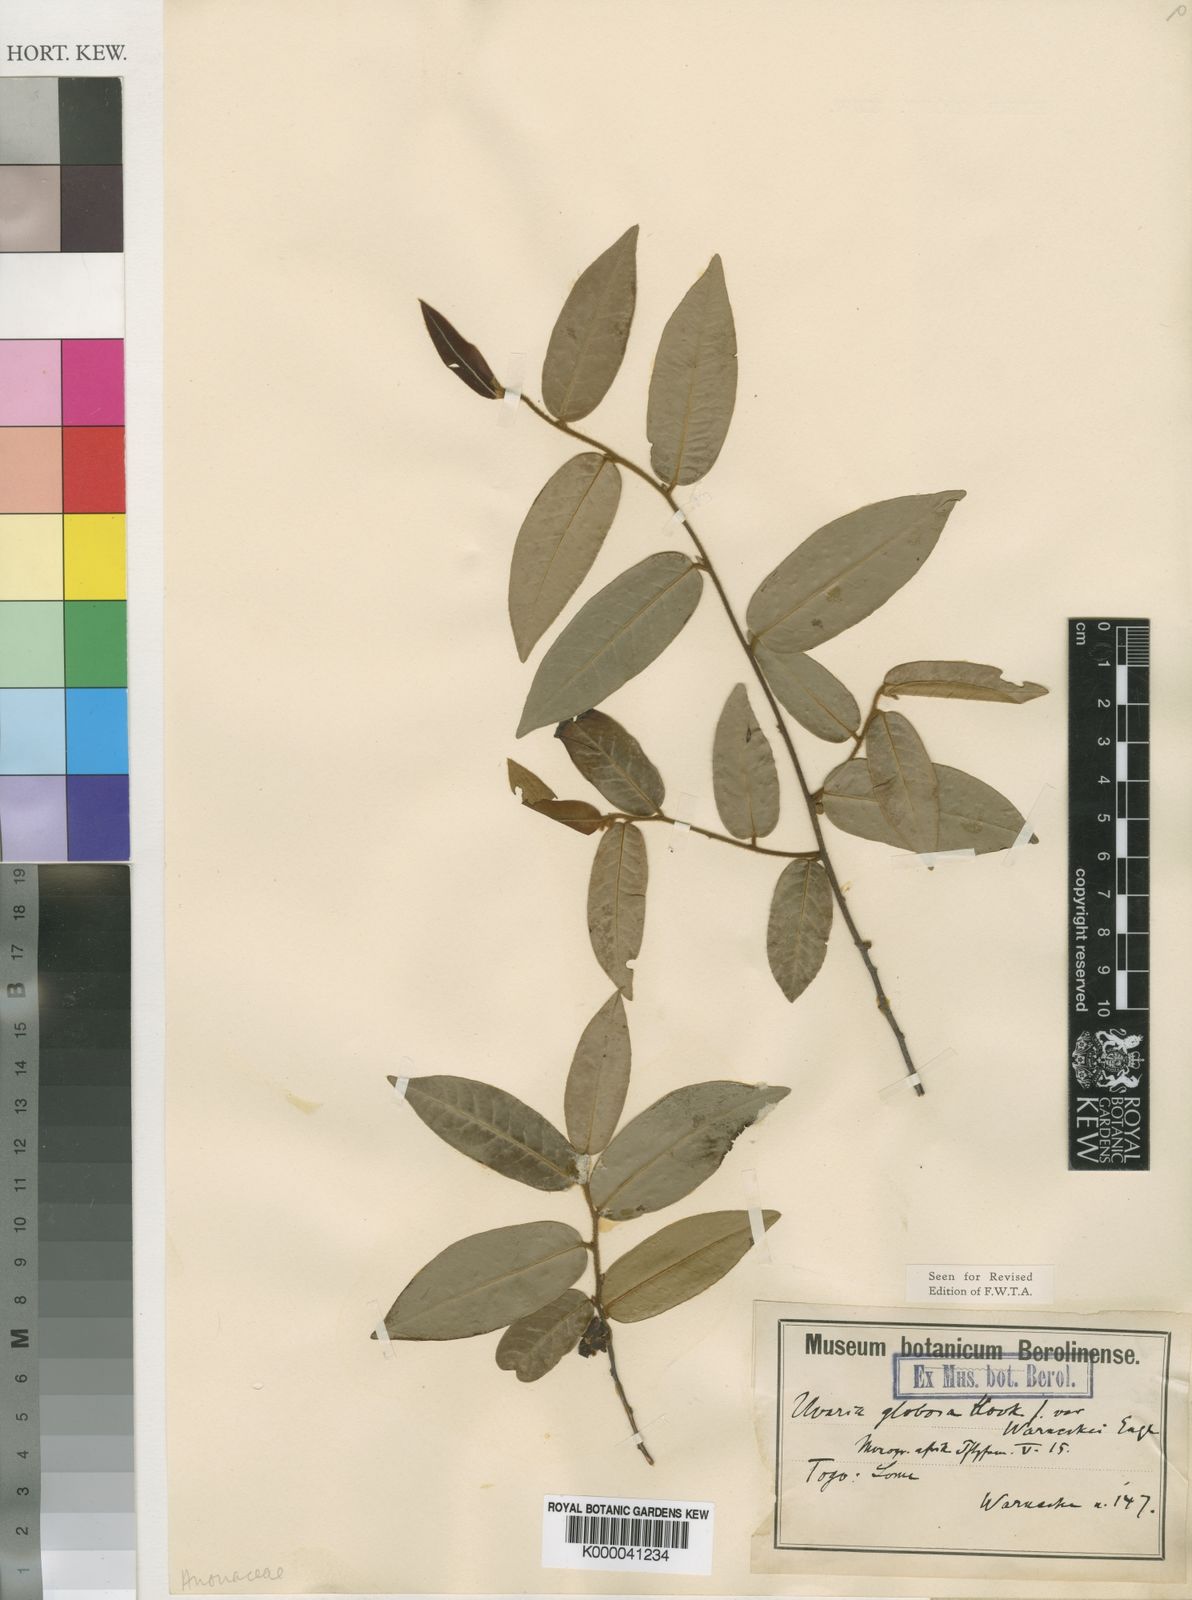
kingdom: Plantae
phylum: Tracheophyta
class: Magnoliopsida
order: Magnoliales
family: Annonaceae
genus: Uvaria
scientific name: Uvaria ovata
